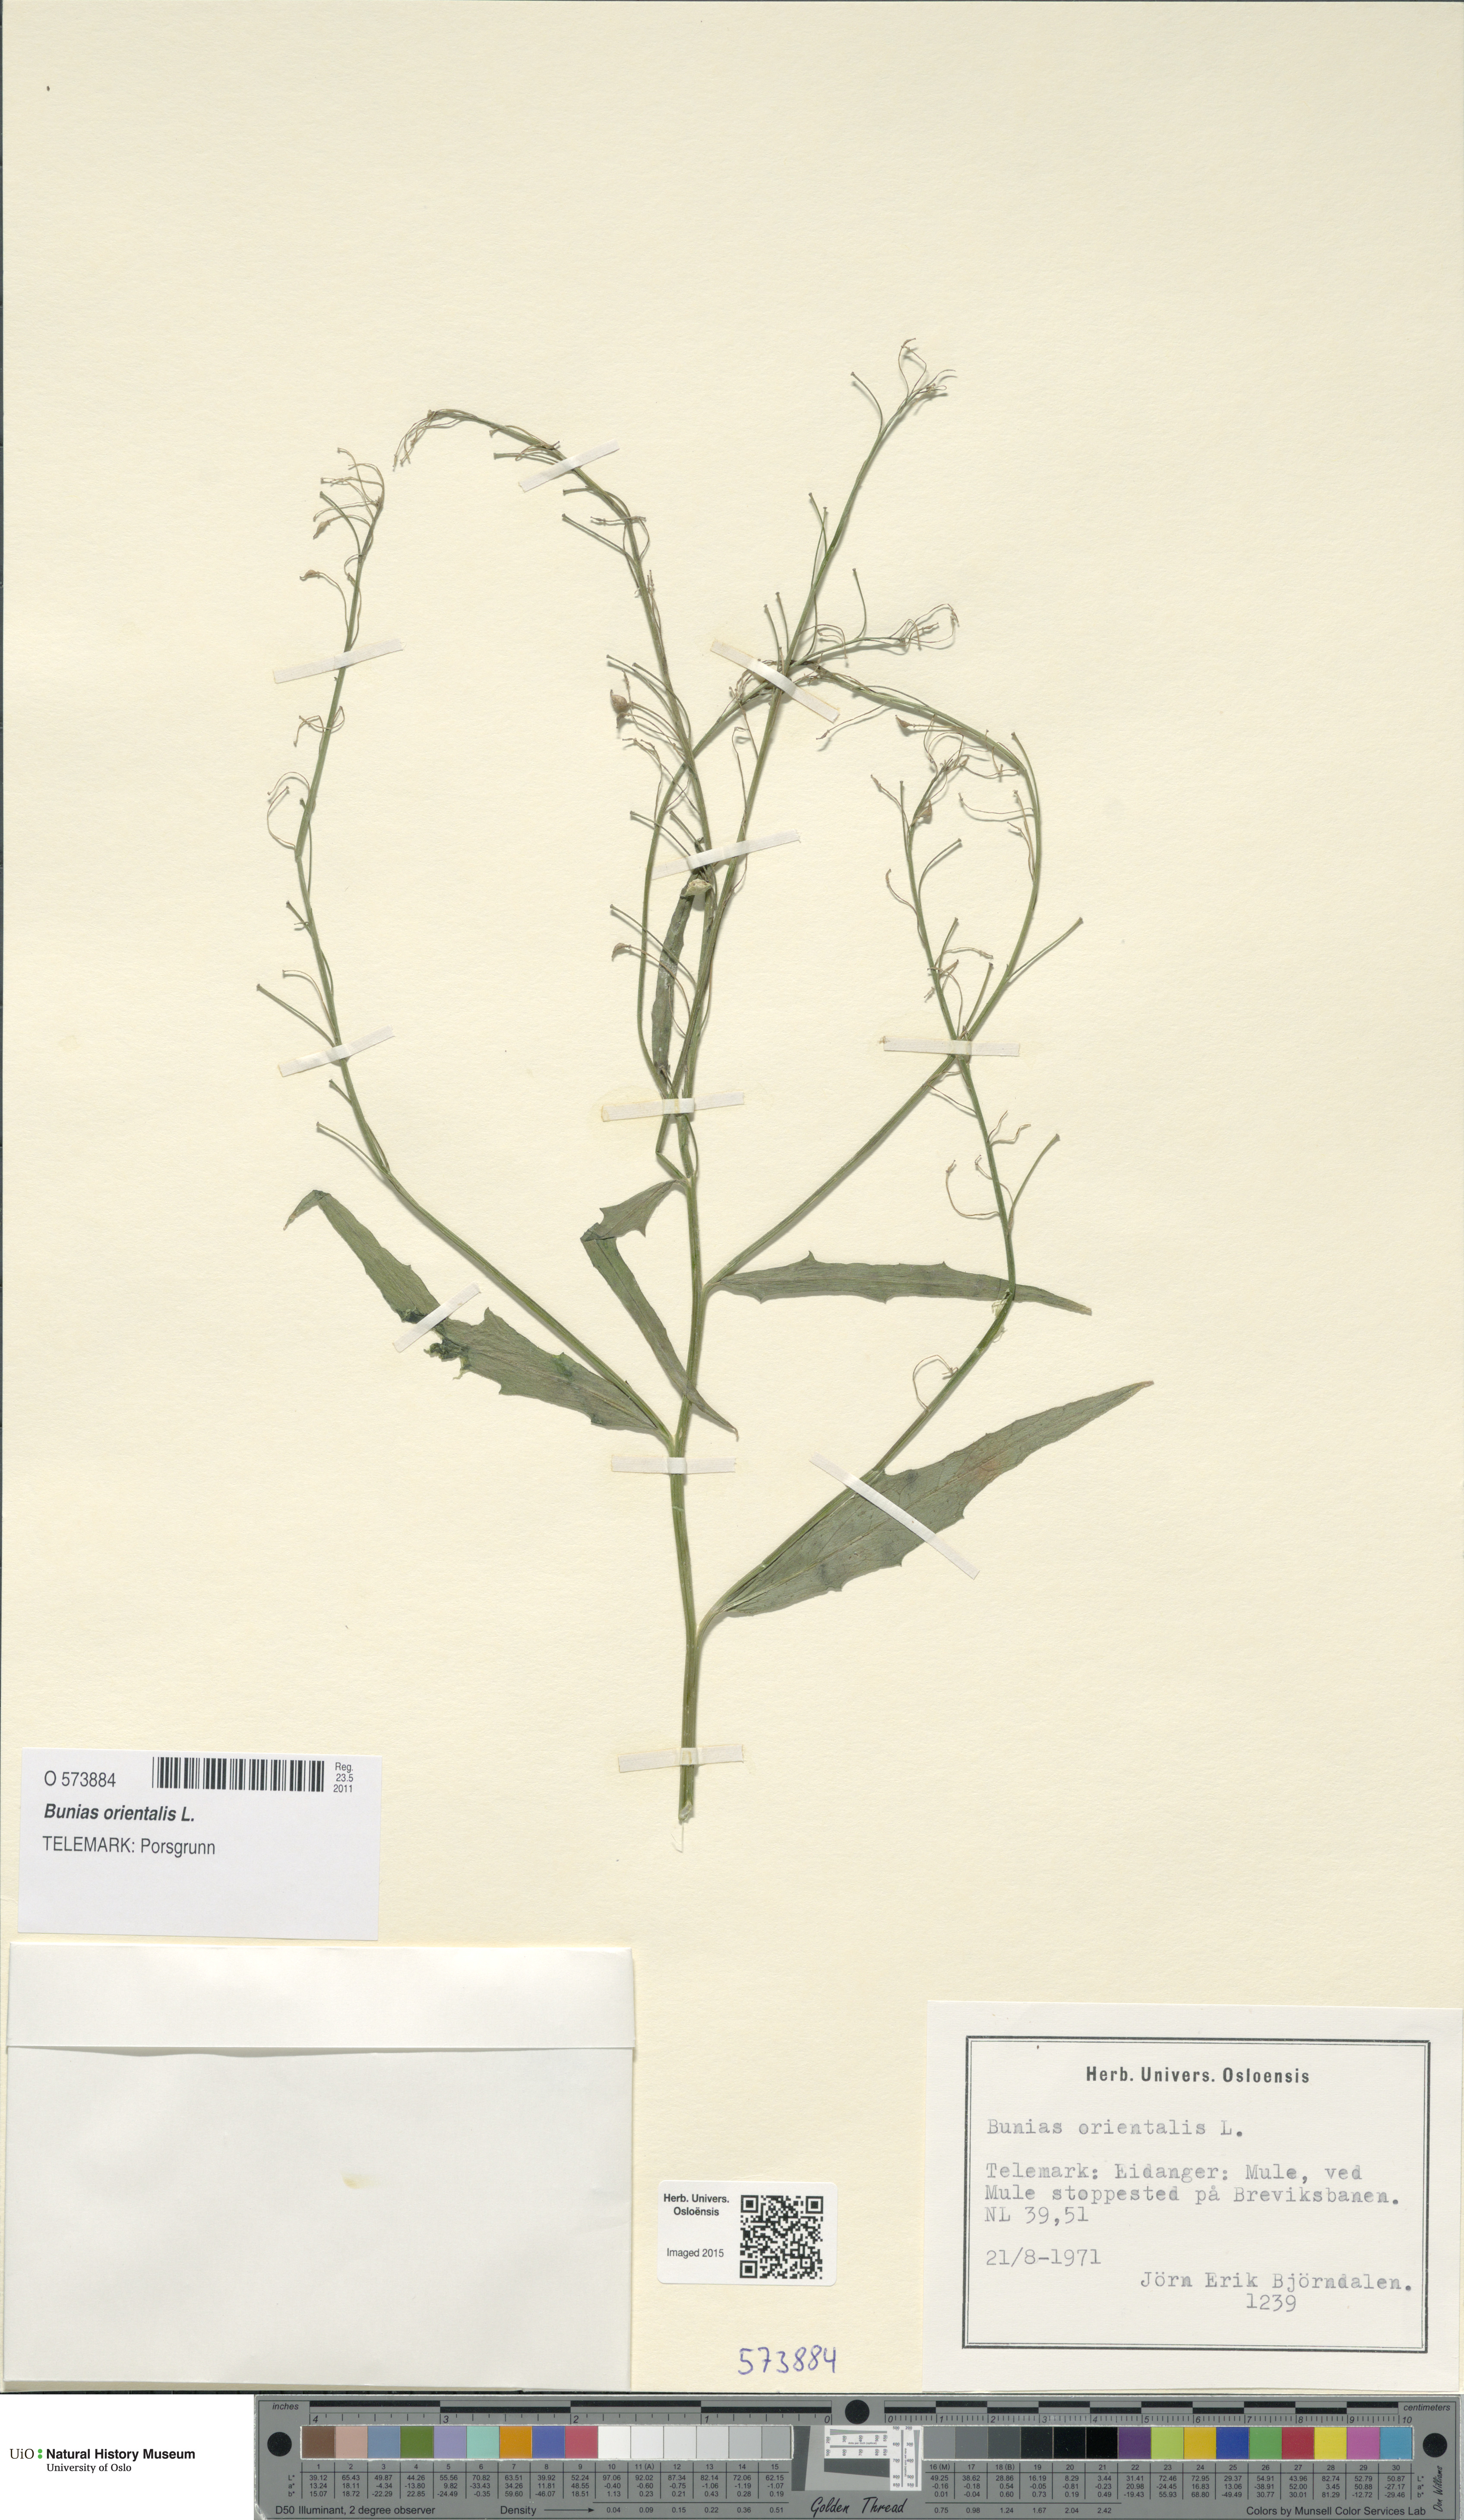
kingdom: Plantae
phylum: Tracheophyta
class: Magnoliopsida
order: Brassicales
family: Brassicaceae
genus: Bunias
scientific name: Bunias orientalis
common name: Warty-cabbage
